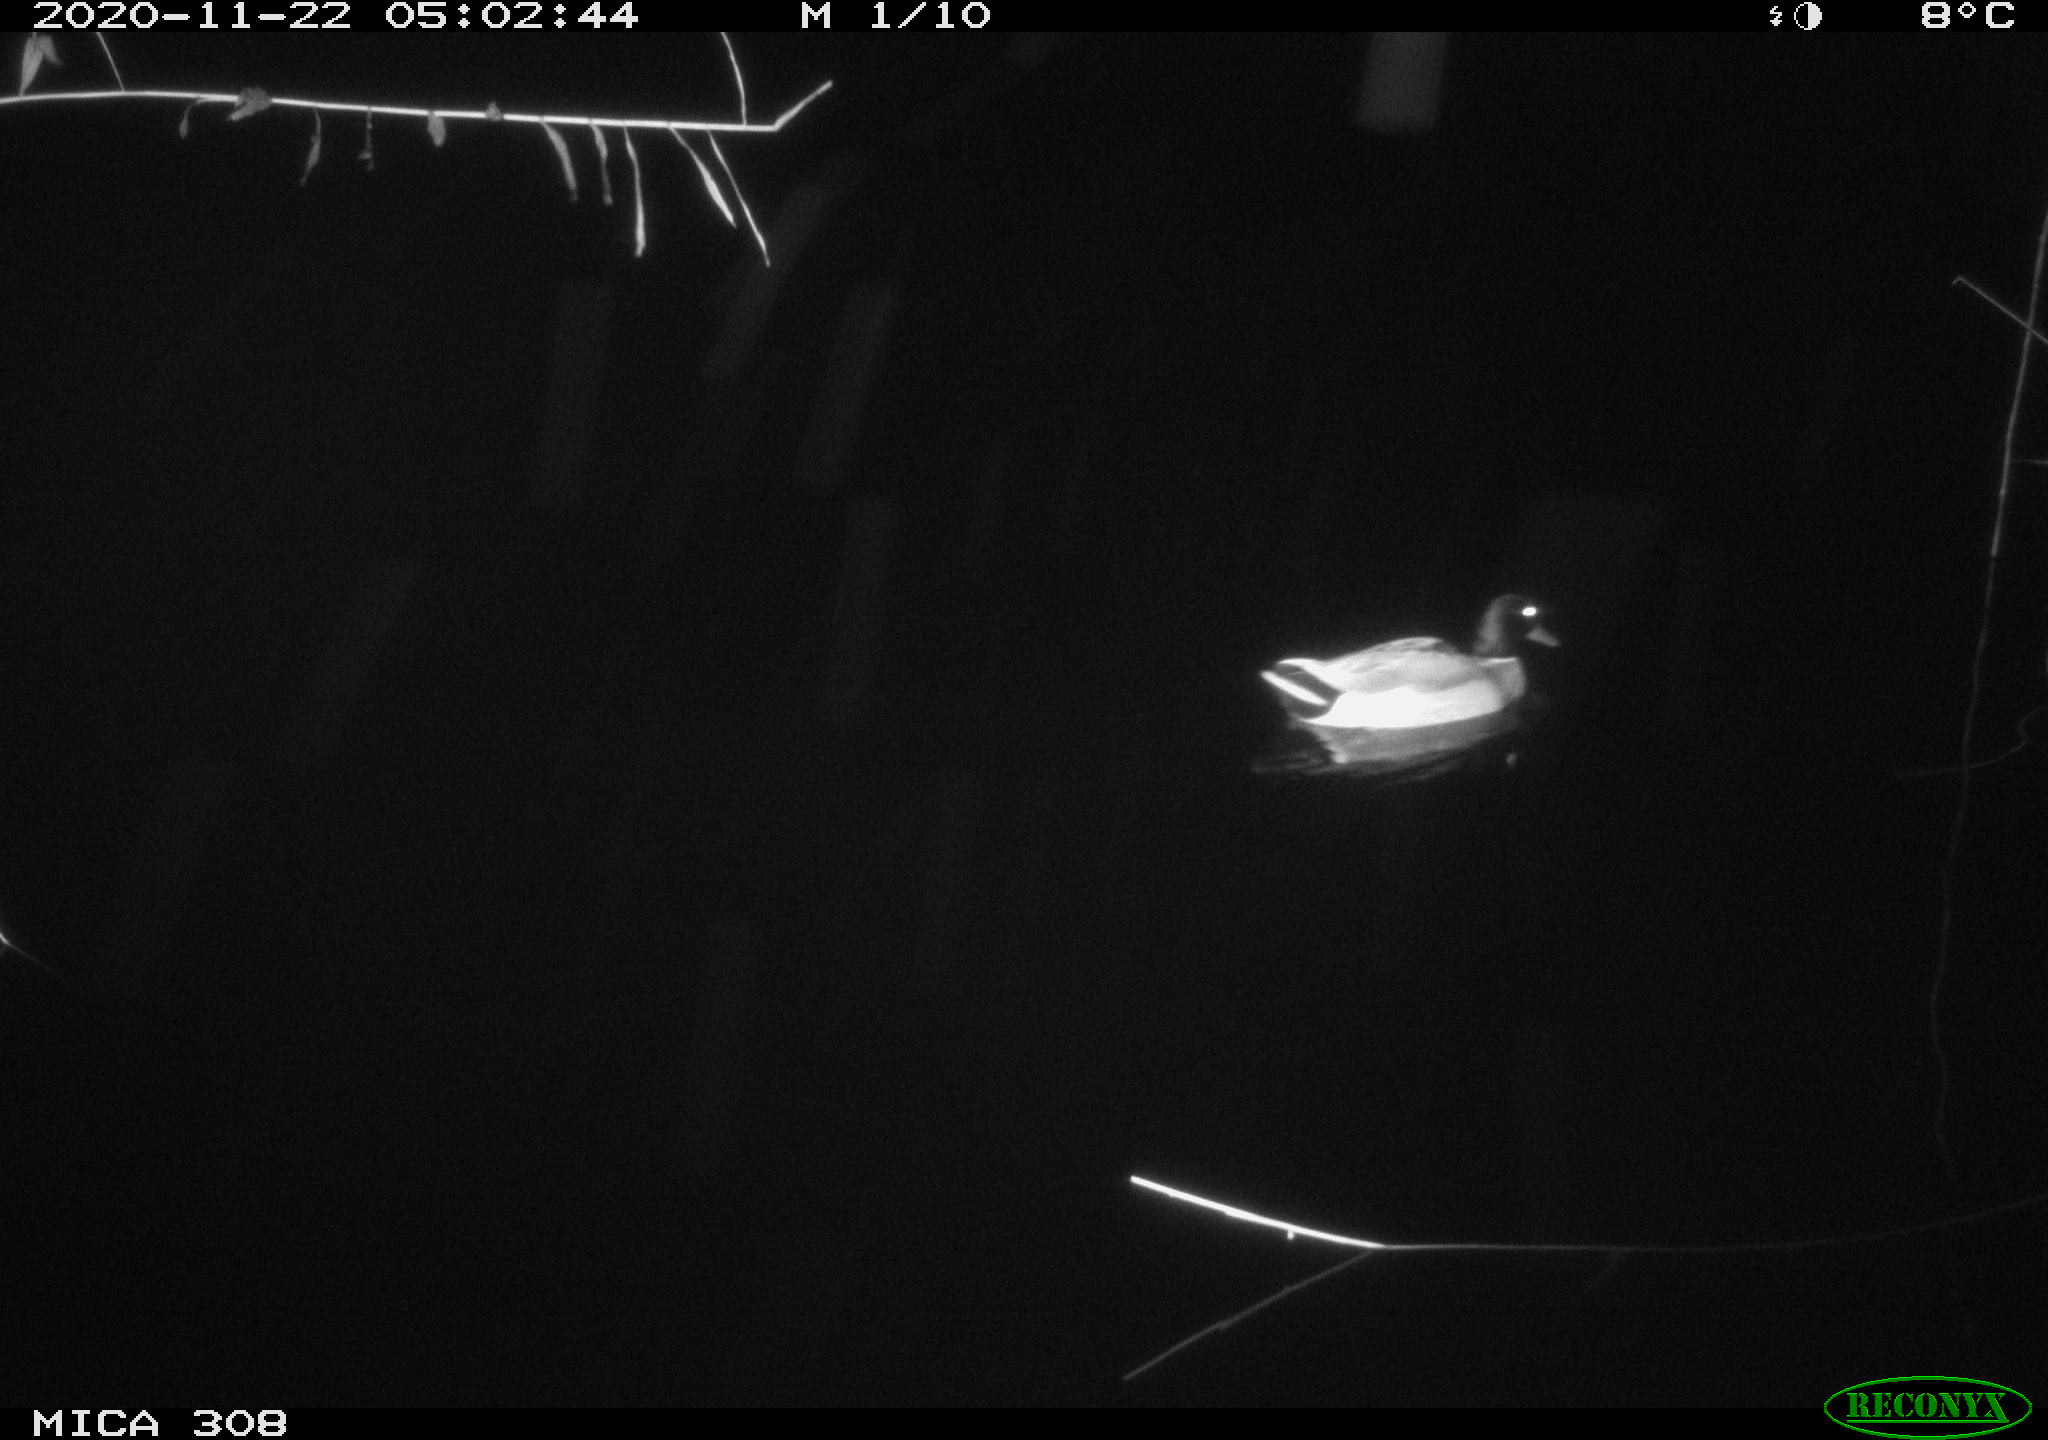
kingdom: Animalia
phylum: Chordata
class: Aves
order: Anseriformes
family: Anatidae
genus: Anas
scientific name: Anas platyrhynchos
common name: Mallard
